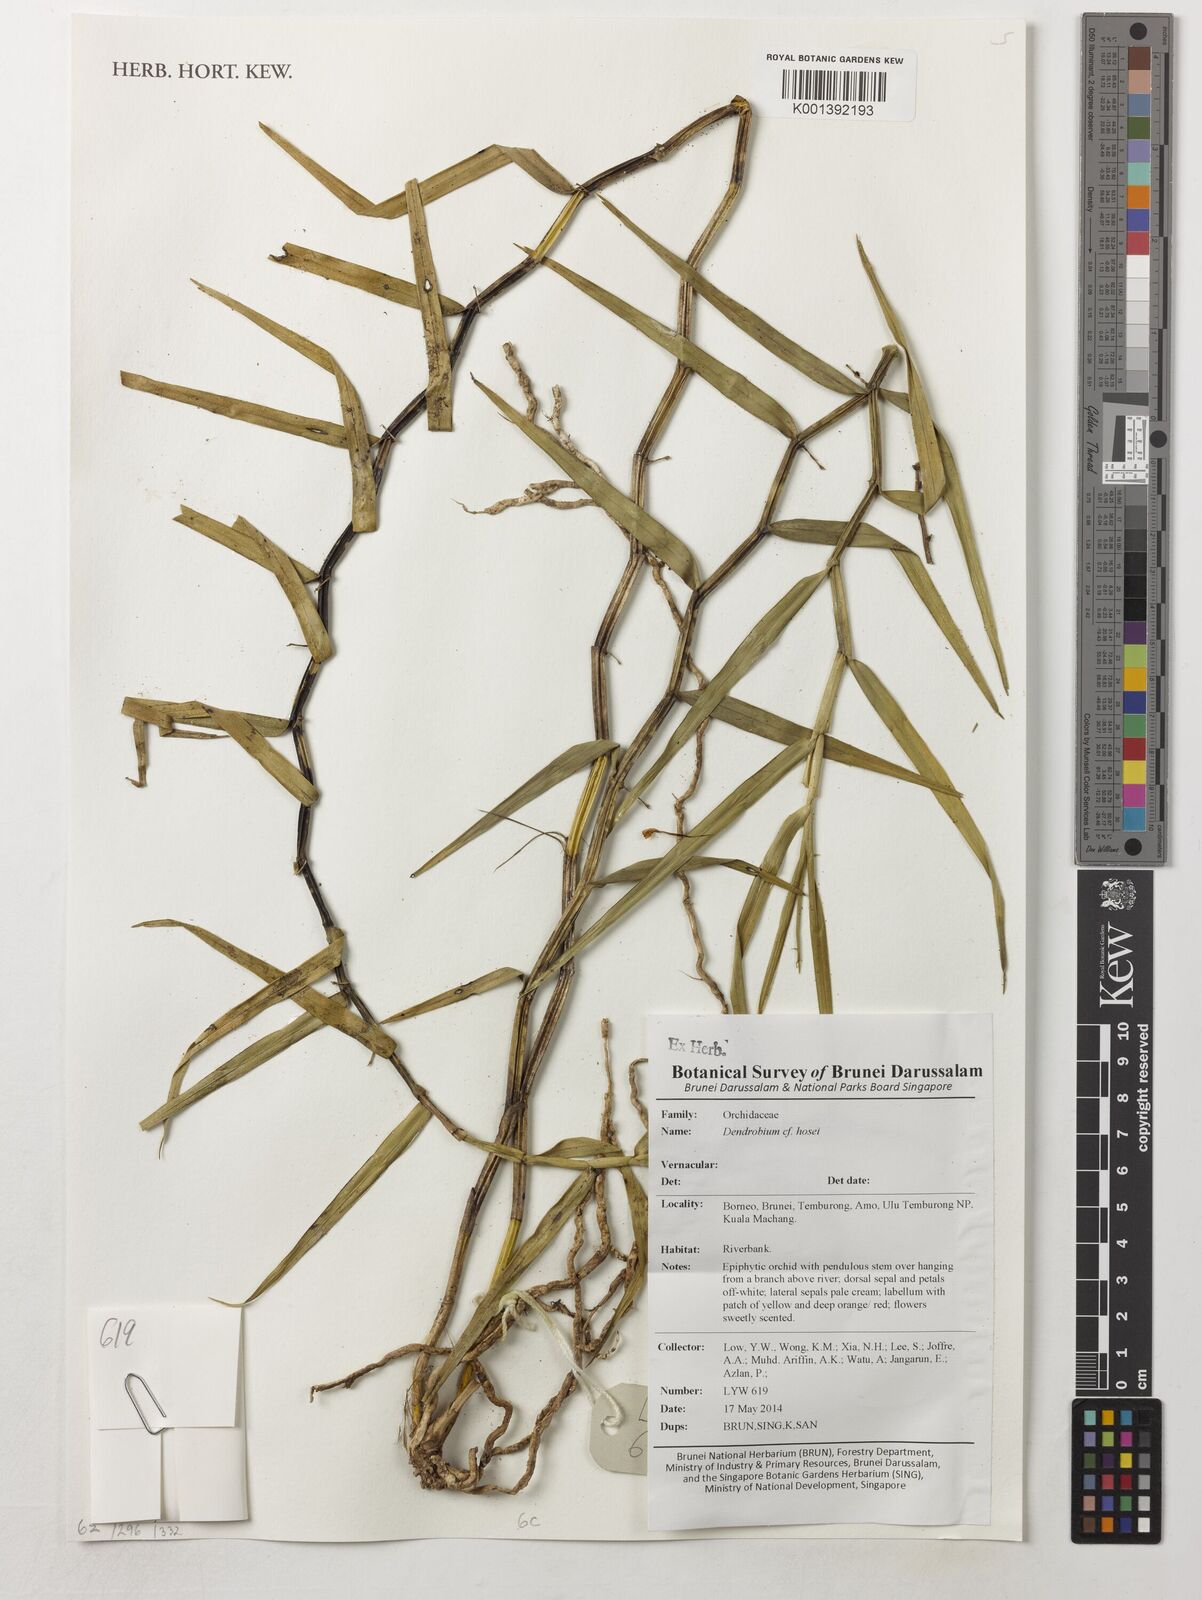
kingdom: Plantae
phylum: Tracheophyta
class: Liliopsida
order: Asparagales
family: Orchidaceae
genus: Dendrobium
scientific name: Dendrobium hosei
